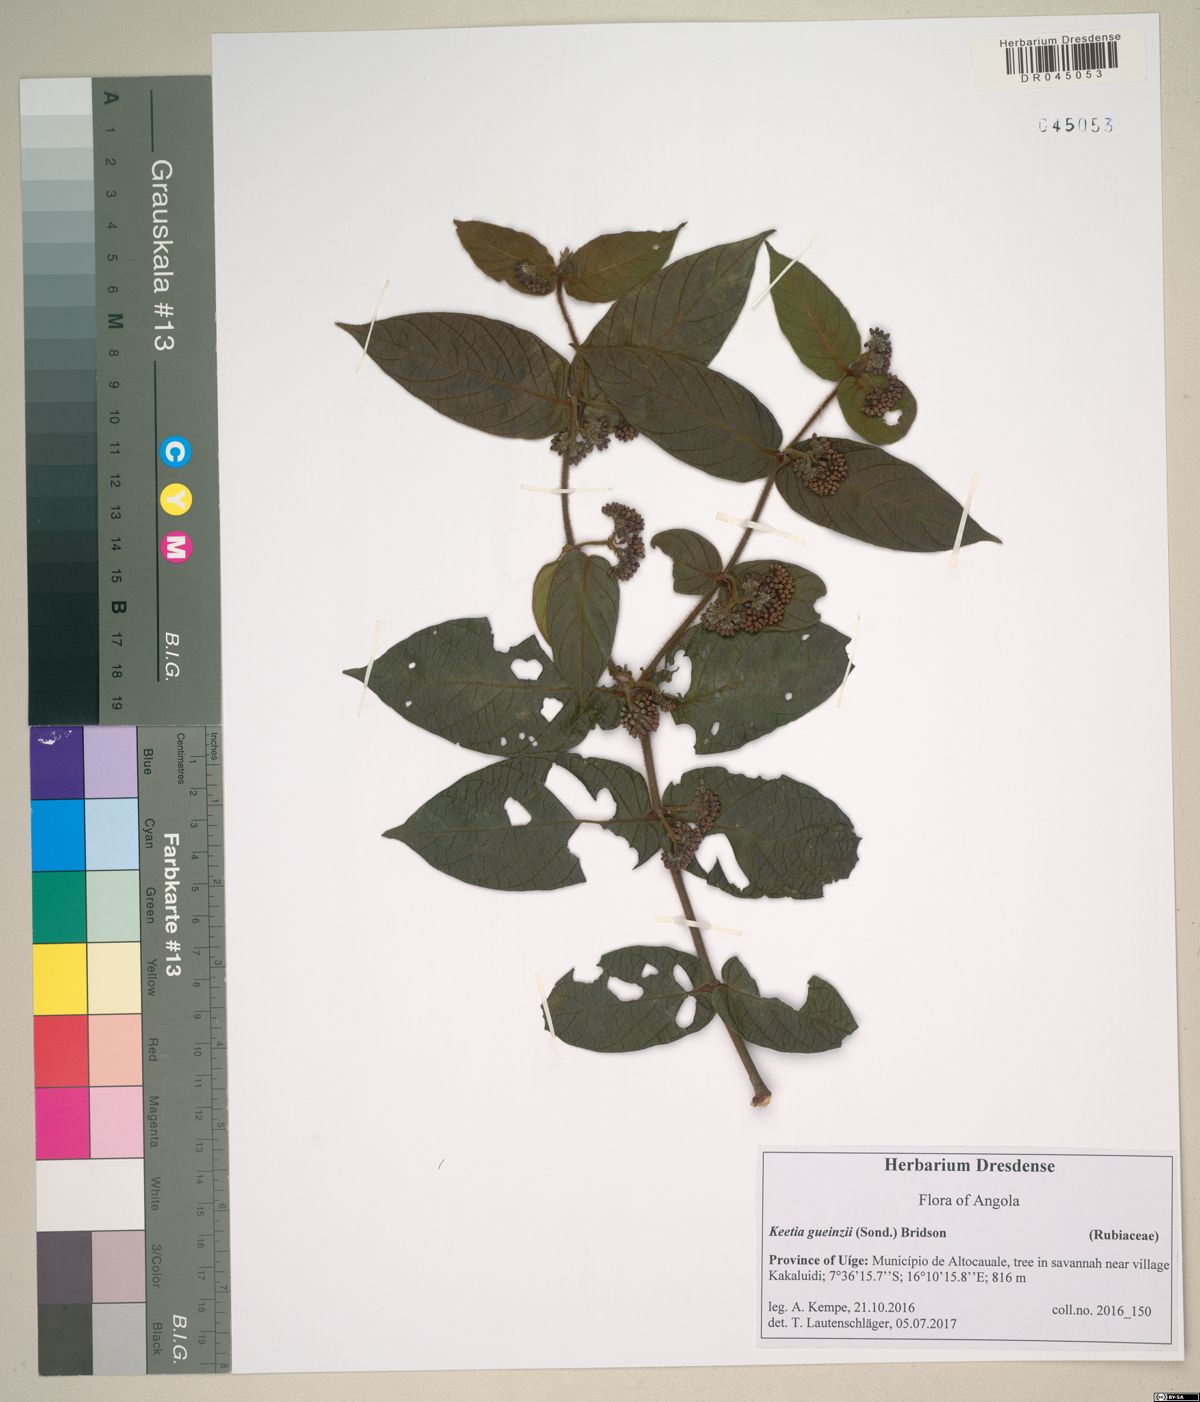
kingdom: Plantae
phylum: Tracheophyta
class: Magnoliopsida
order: Gentianales
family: Rubiaceae
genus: Keetia
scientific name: Keetia gueinzii
